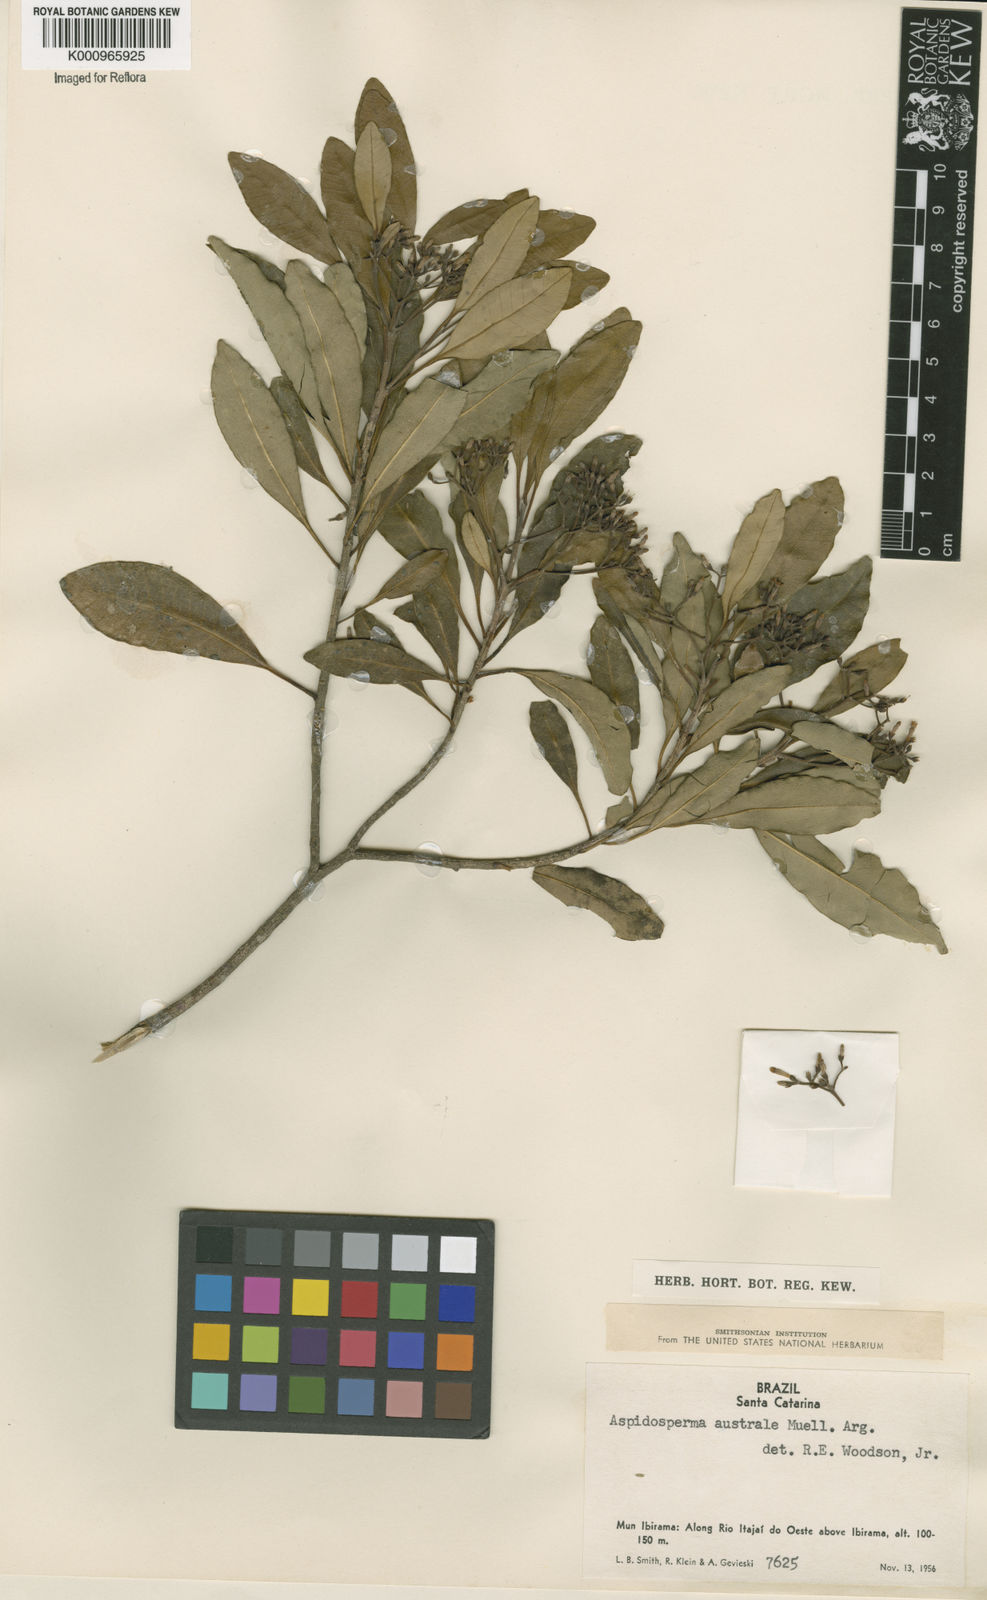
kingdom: Plantae
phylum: Tracheophyta
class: Magnoliopsida
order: Gentianales
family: Apocynaceae
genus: Aspidosperma
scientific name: Aspidosperma
